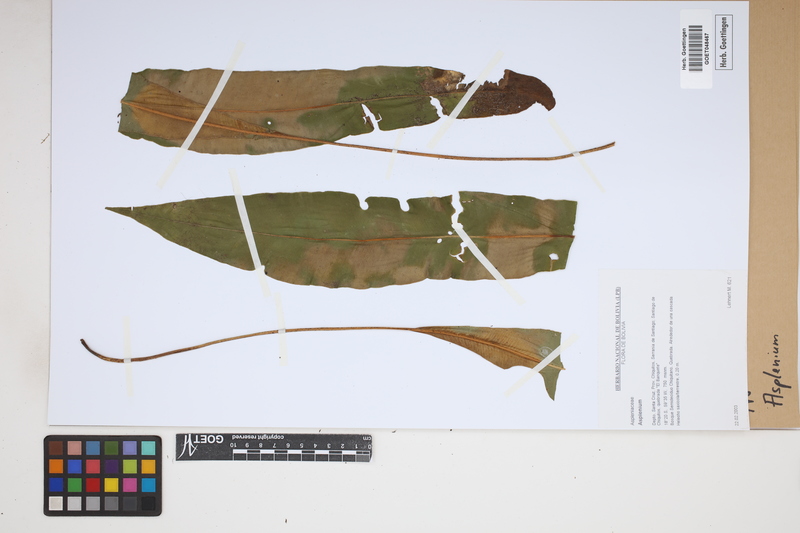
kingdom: Plantae
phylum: Tracheophyta
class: Polypodiopsida
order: Polypodiales
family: Aspleniaceae
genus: Asplenium
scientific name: Asplenium
